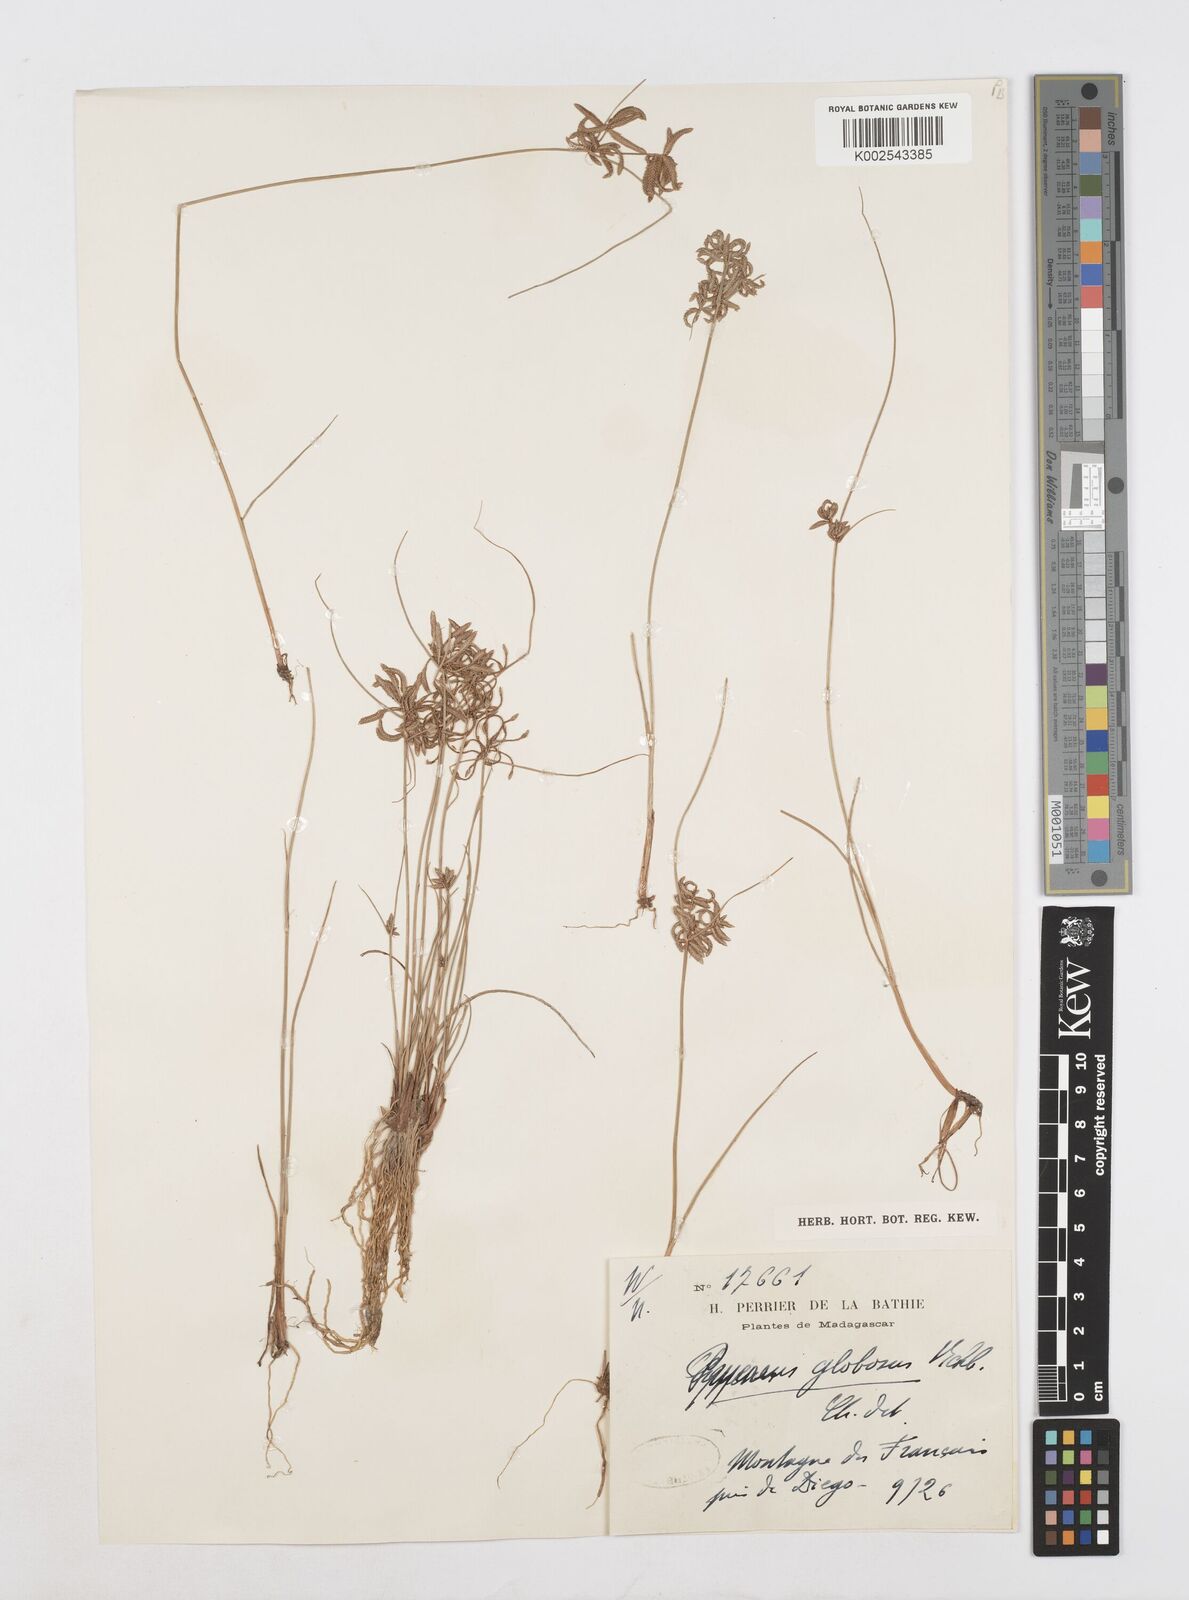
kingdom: Plantae
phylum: Tracheophyta
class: Liliopsida
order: Poales
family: Cyperaceae
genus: Cyperus
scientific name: Cyperus flavidus
